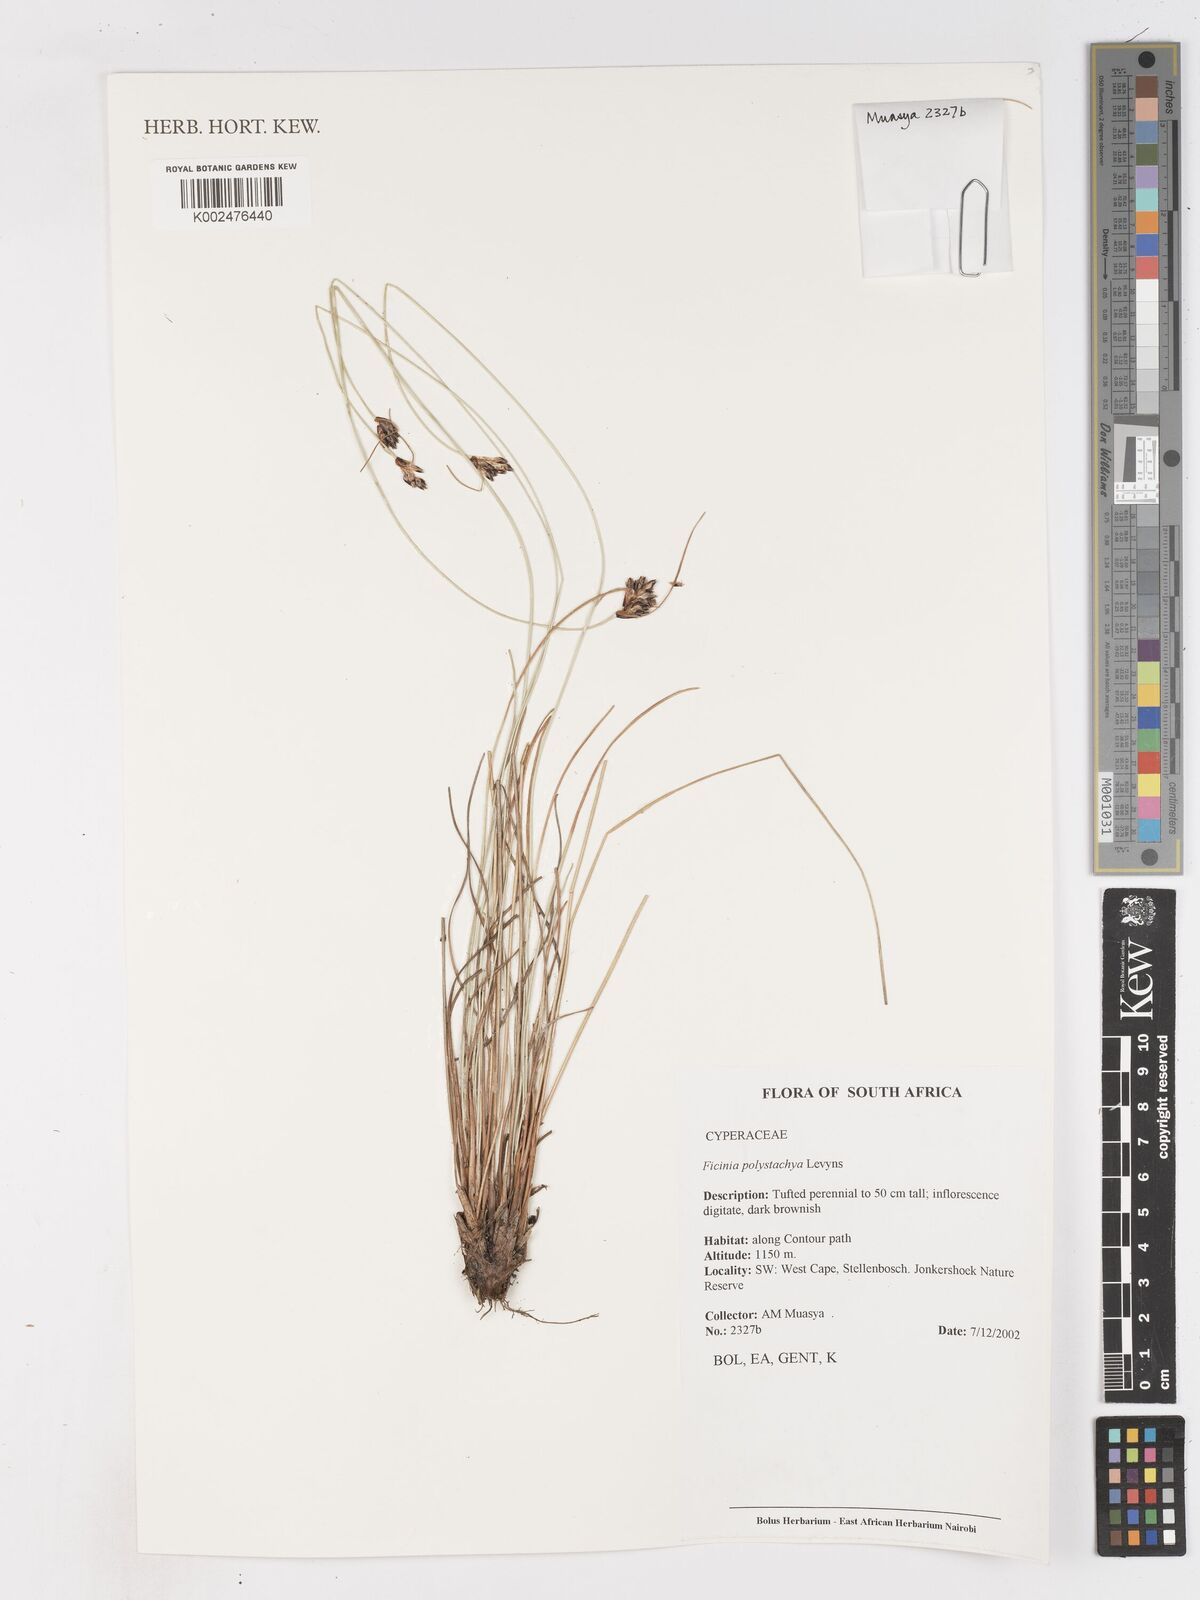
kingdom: Plantae
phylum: Tracheophyta
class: Liliopsida
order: Poales
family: Cyperaceae
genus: Ficinia
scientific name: Ficinia polystachya
